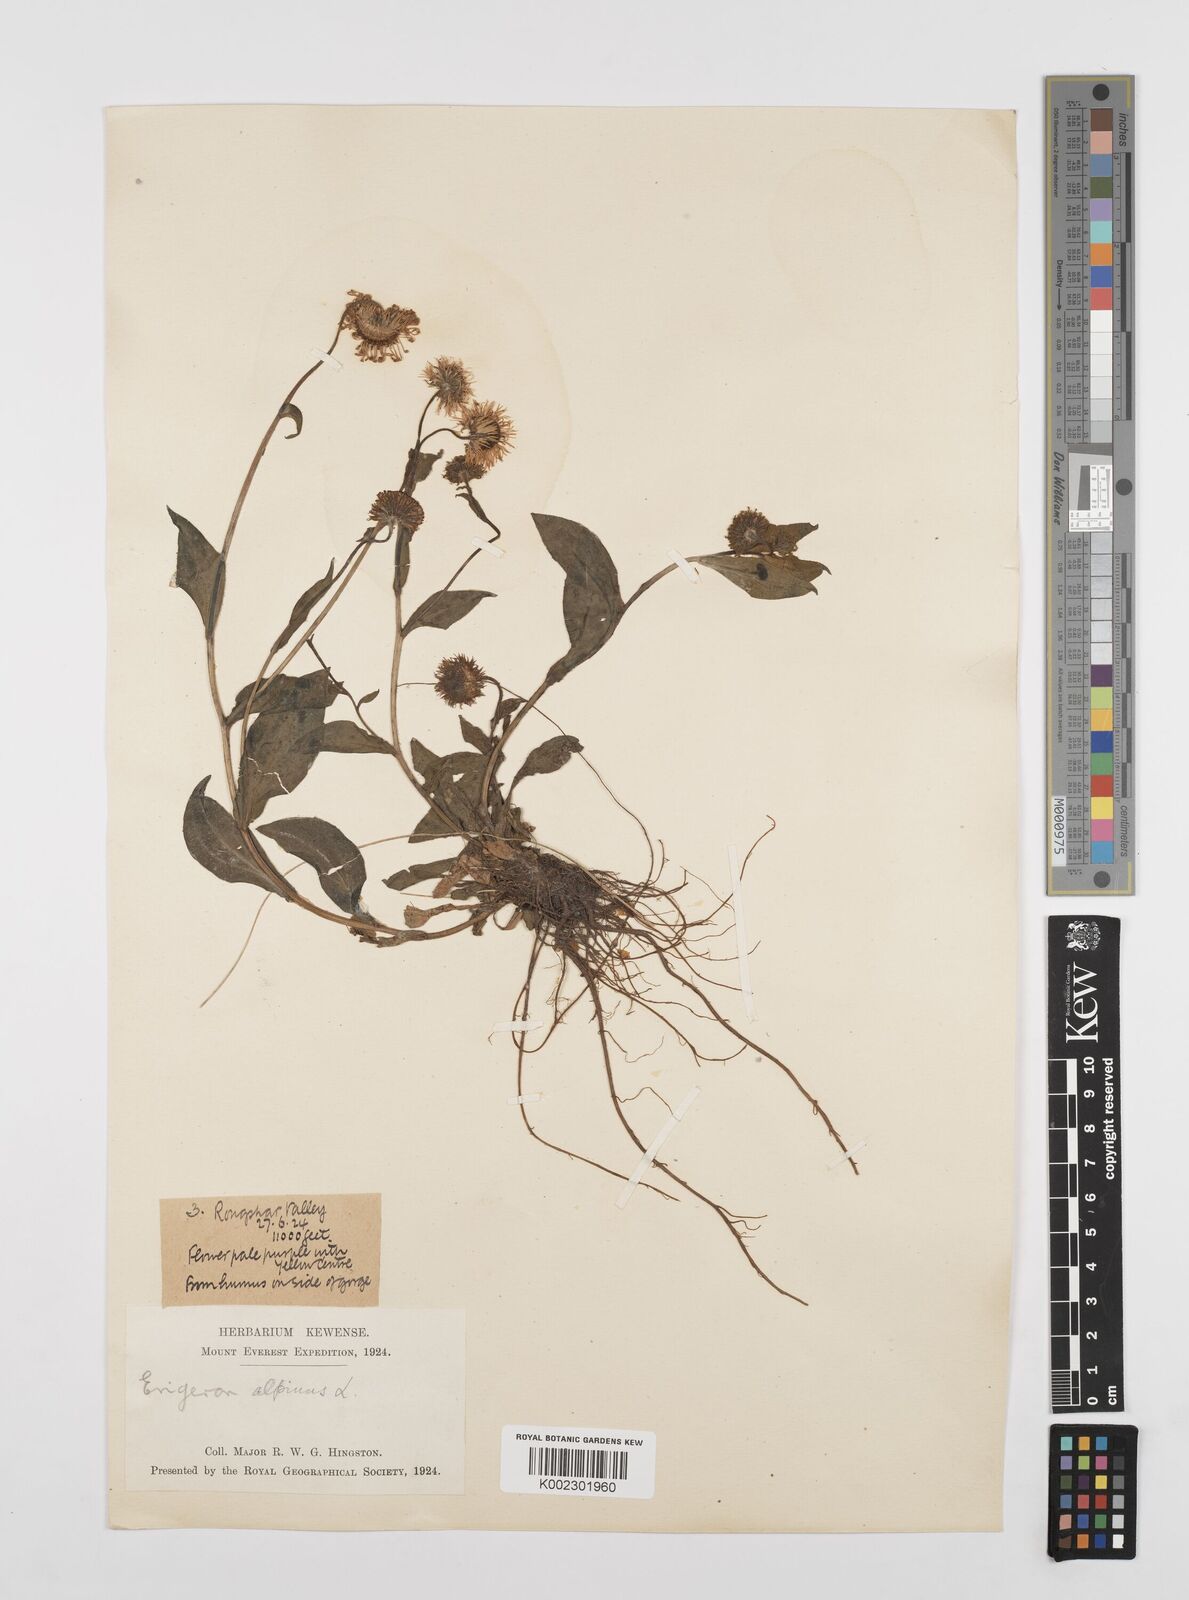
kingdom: Plantae
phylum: Tracheophyta
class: Magnoliopsida
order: Asterales
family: Asteraceae
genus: Erigeron
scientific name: Erigeron alpinus
